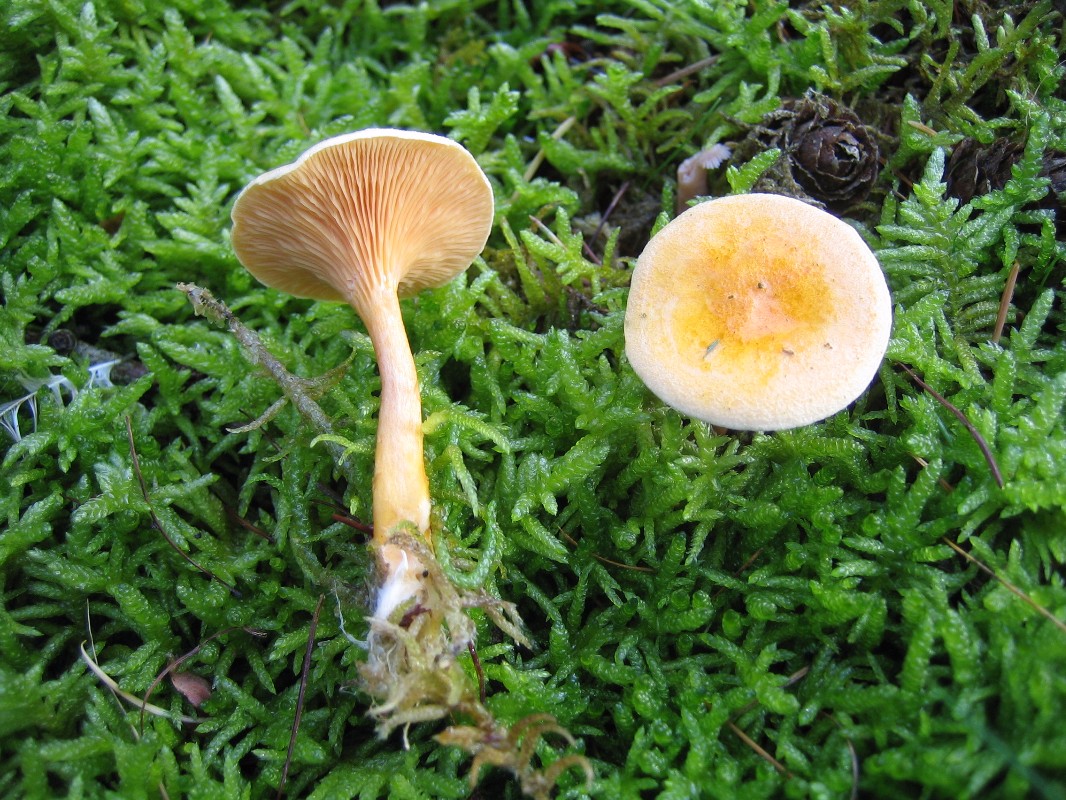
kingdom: Fungi
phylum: Basidiomycota
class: Agaricomycetes
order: Boletales
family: Hygrophoropsidaceae
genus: Hygrophoropsis
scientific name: Hygrophoropsis aurantiaca
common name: almindelig orangekantarel
